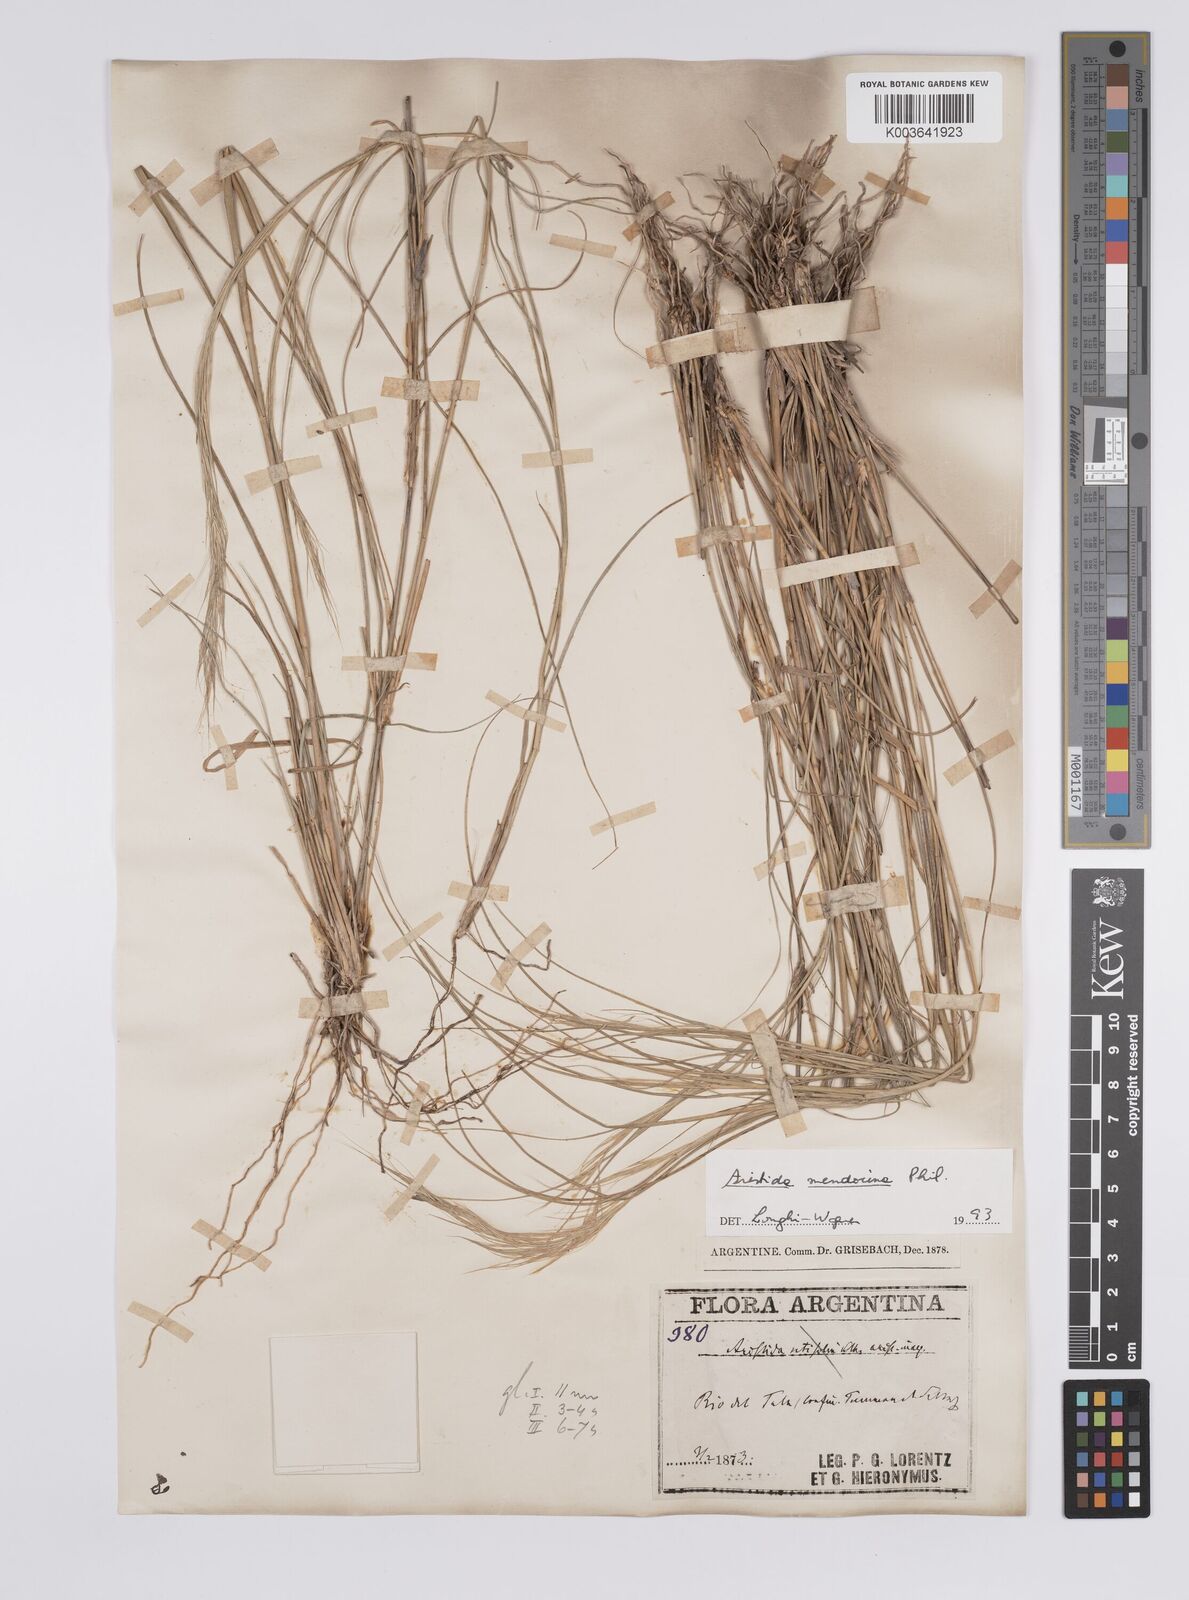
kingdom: Plantae
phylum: Tracheophyta
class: Liliopsida
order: Poales
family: Poaceae
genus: Aristida
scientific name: Aristida mendocina
